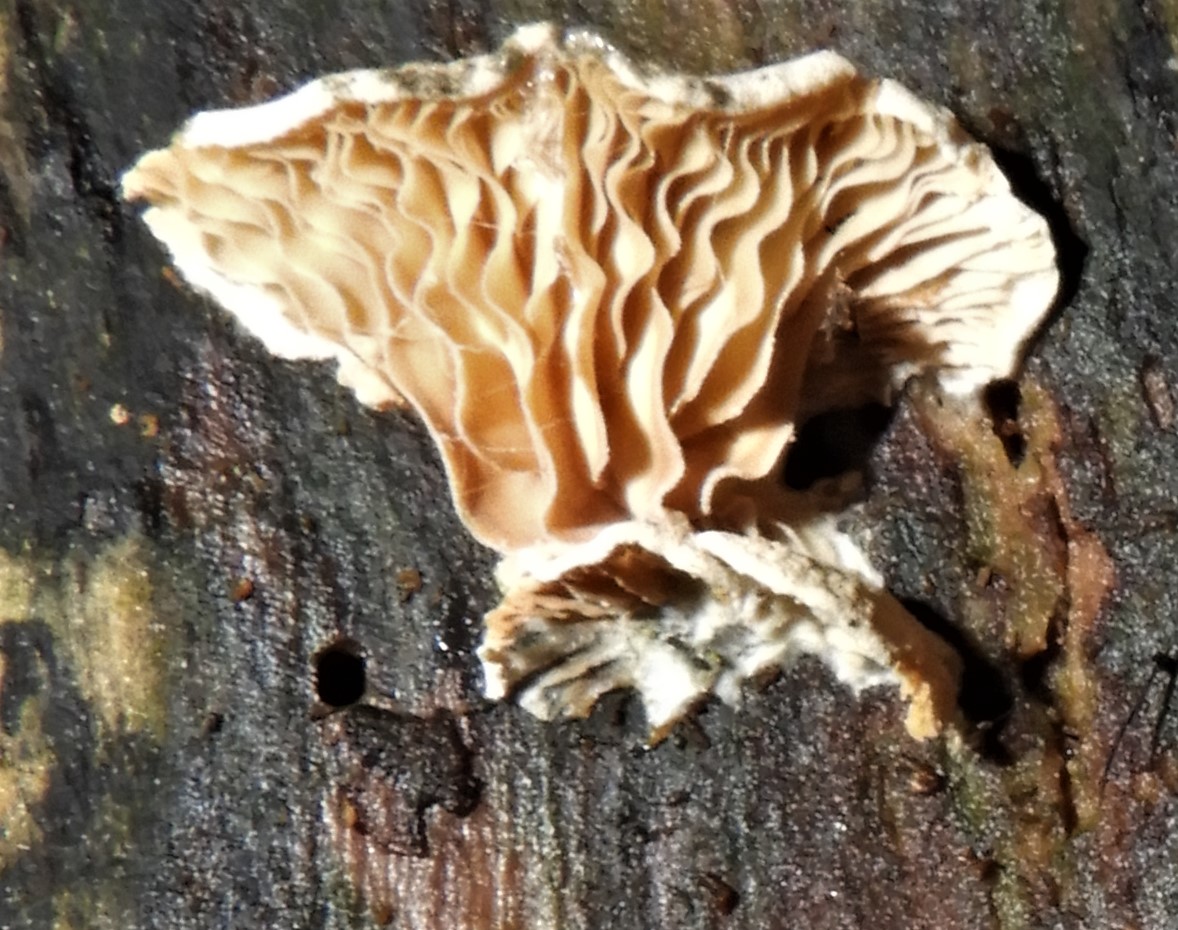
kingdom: Fungi
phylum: Basidiomycota
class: Agaricomycetes
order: Agaricales
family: Crepidotaceae
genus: Crepidotus
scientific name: Crepidotus
